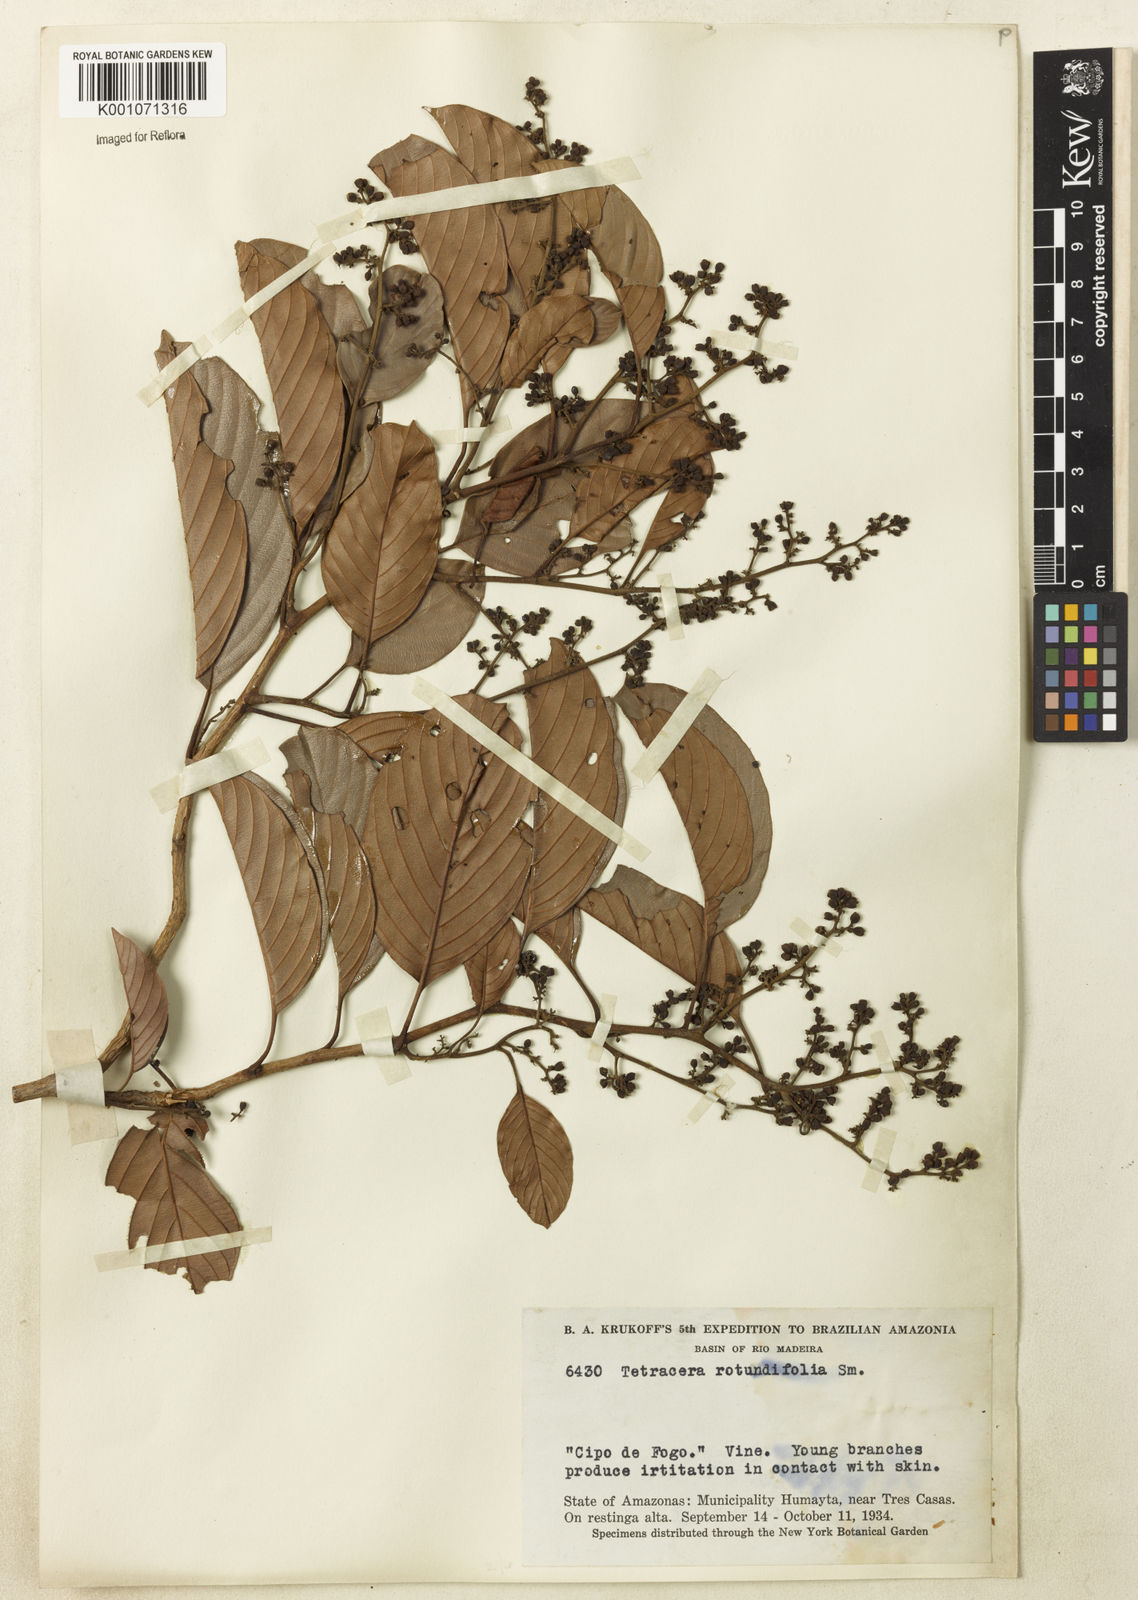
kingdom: Plantae
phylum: Tracheophyta
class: Magnoliopsida
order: Dilleniales
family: Dilleniaceae
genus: Tetracera
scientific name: Tetracera willdenowiana
